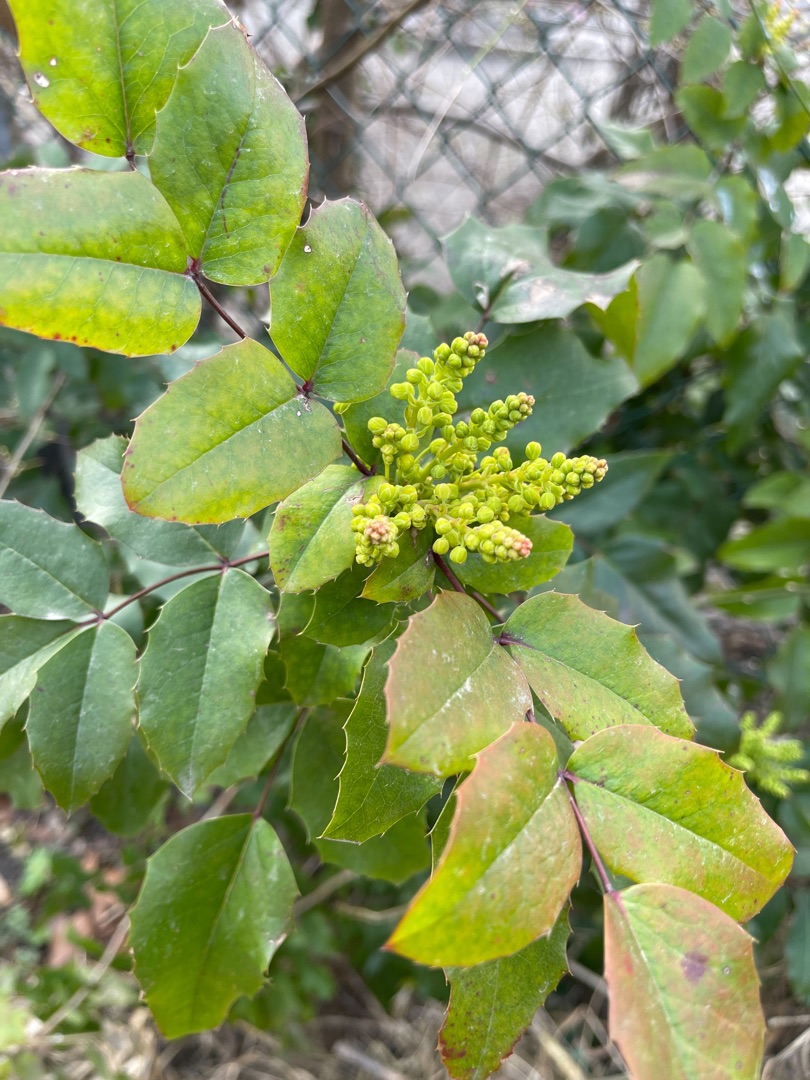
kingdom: Plantae
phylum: Tracheophyta
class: Magnoliopsida
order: Ranunculales
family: Berberidaceae
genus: Mahonia
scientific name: Mahonia aquifolium
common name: Almindelig mahonie
